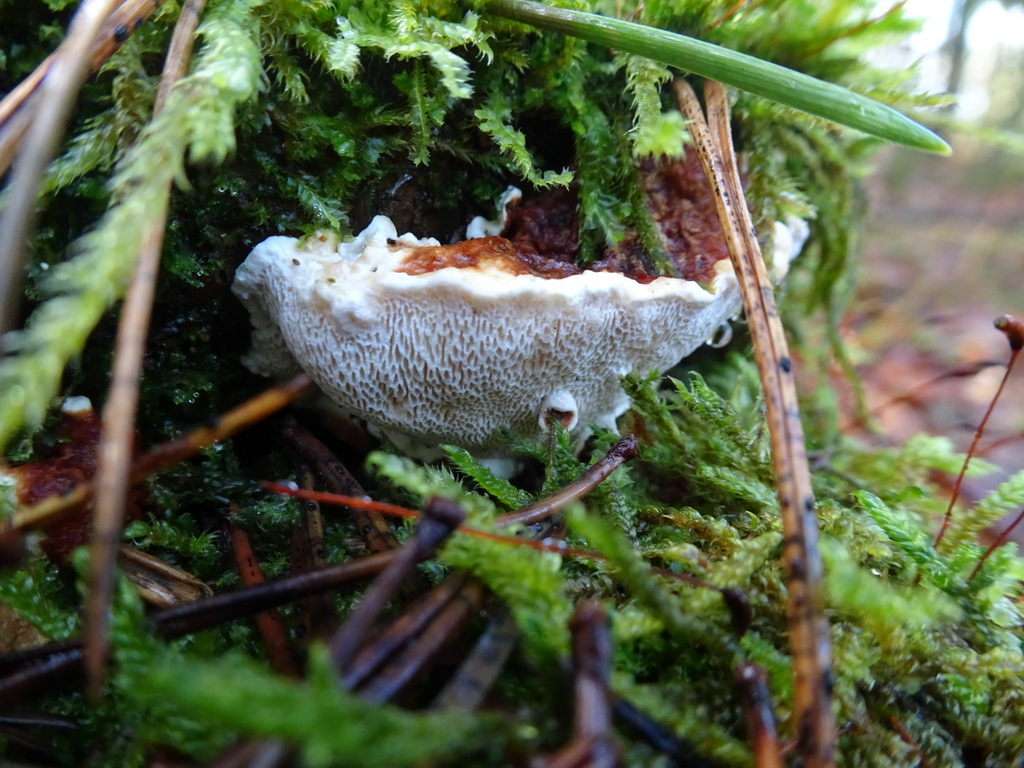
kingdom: Fungi
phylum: Basidiomycota
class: Agaricomycetes
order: Russulales
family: Bondarzewiaceae
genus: Heterobasidion
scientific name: Heterobasidion annosum
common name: almindelig rodfordærver
